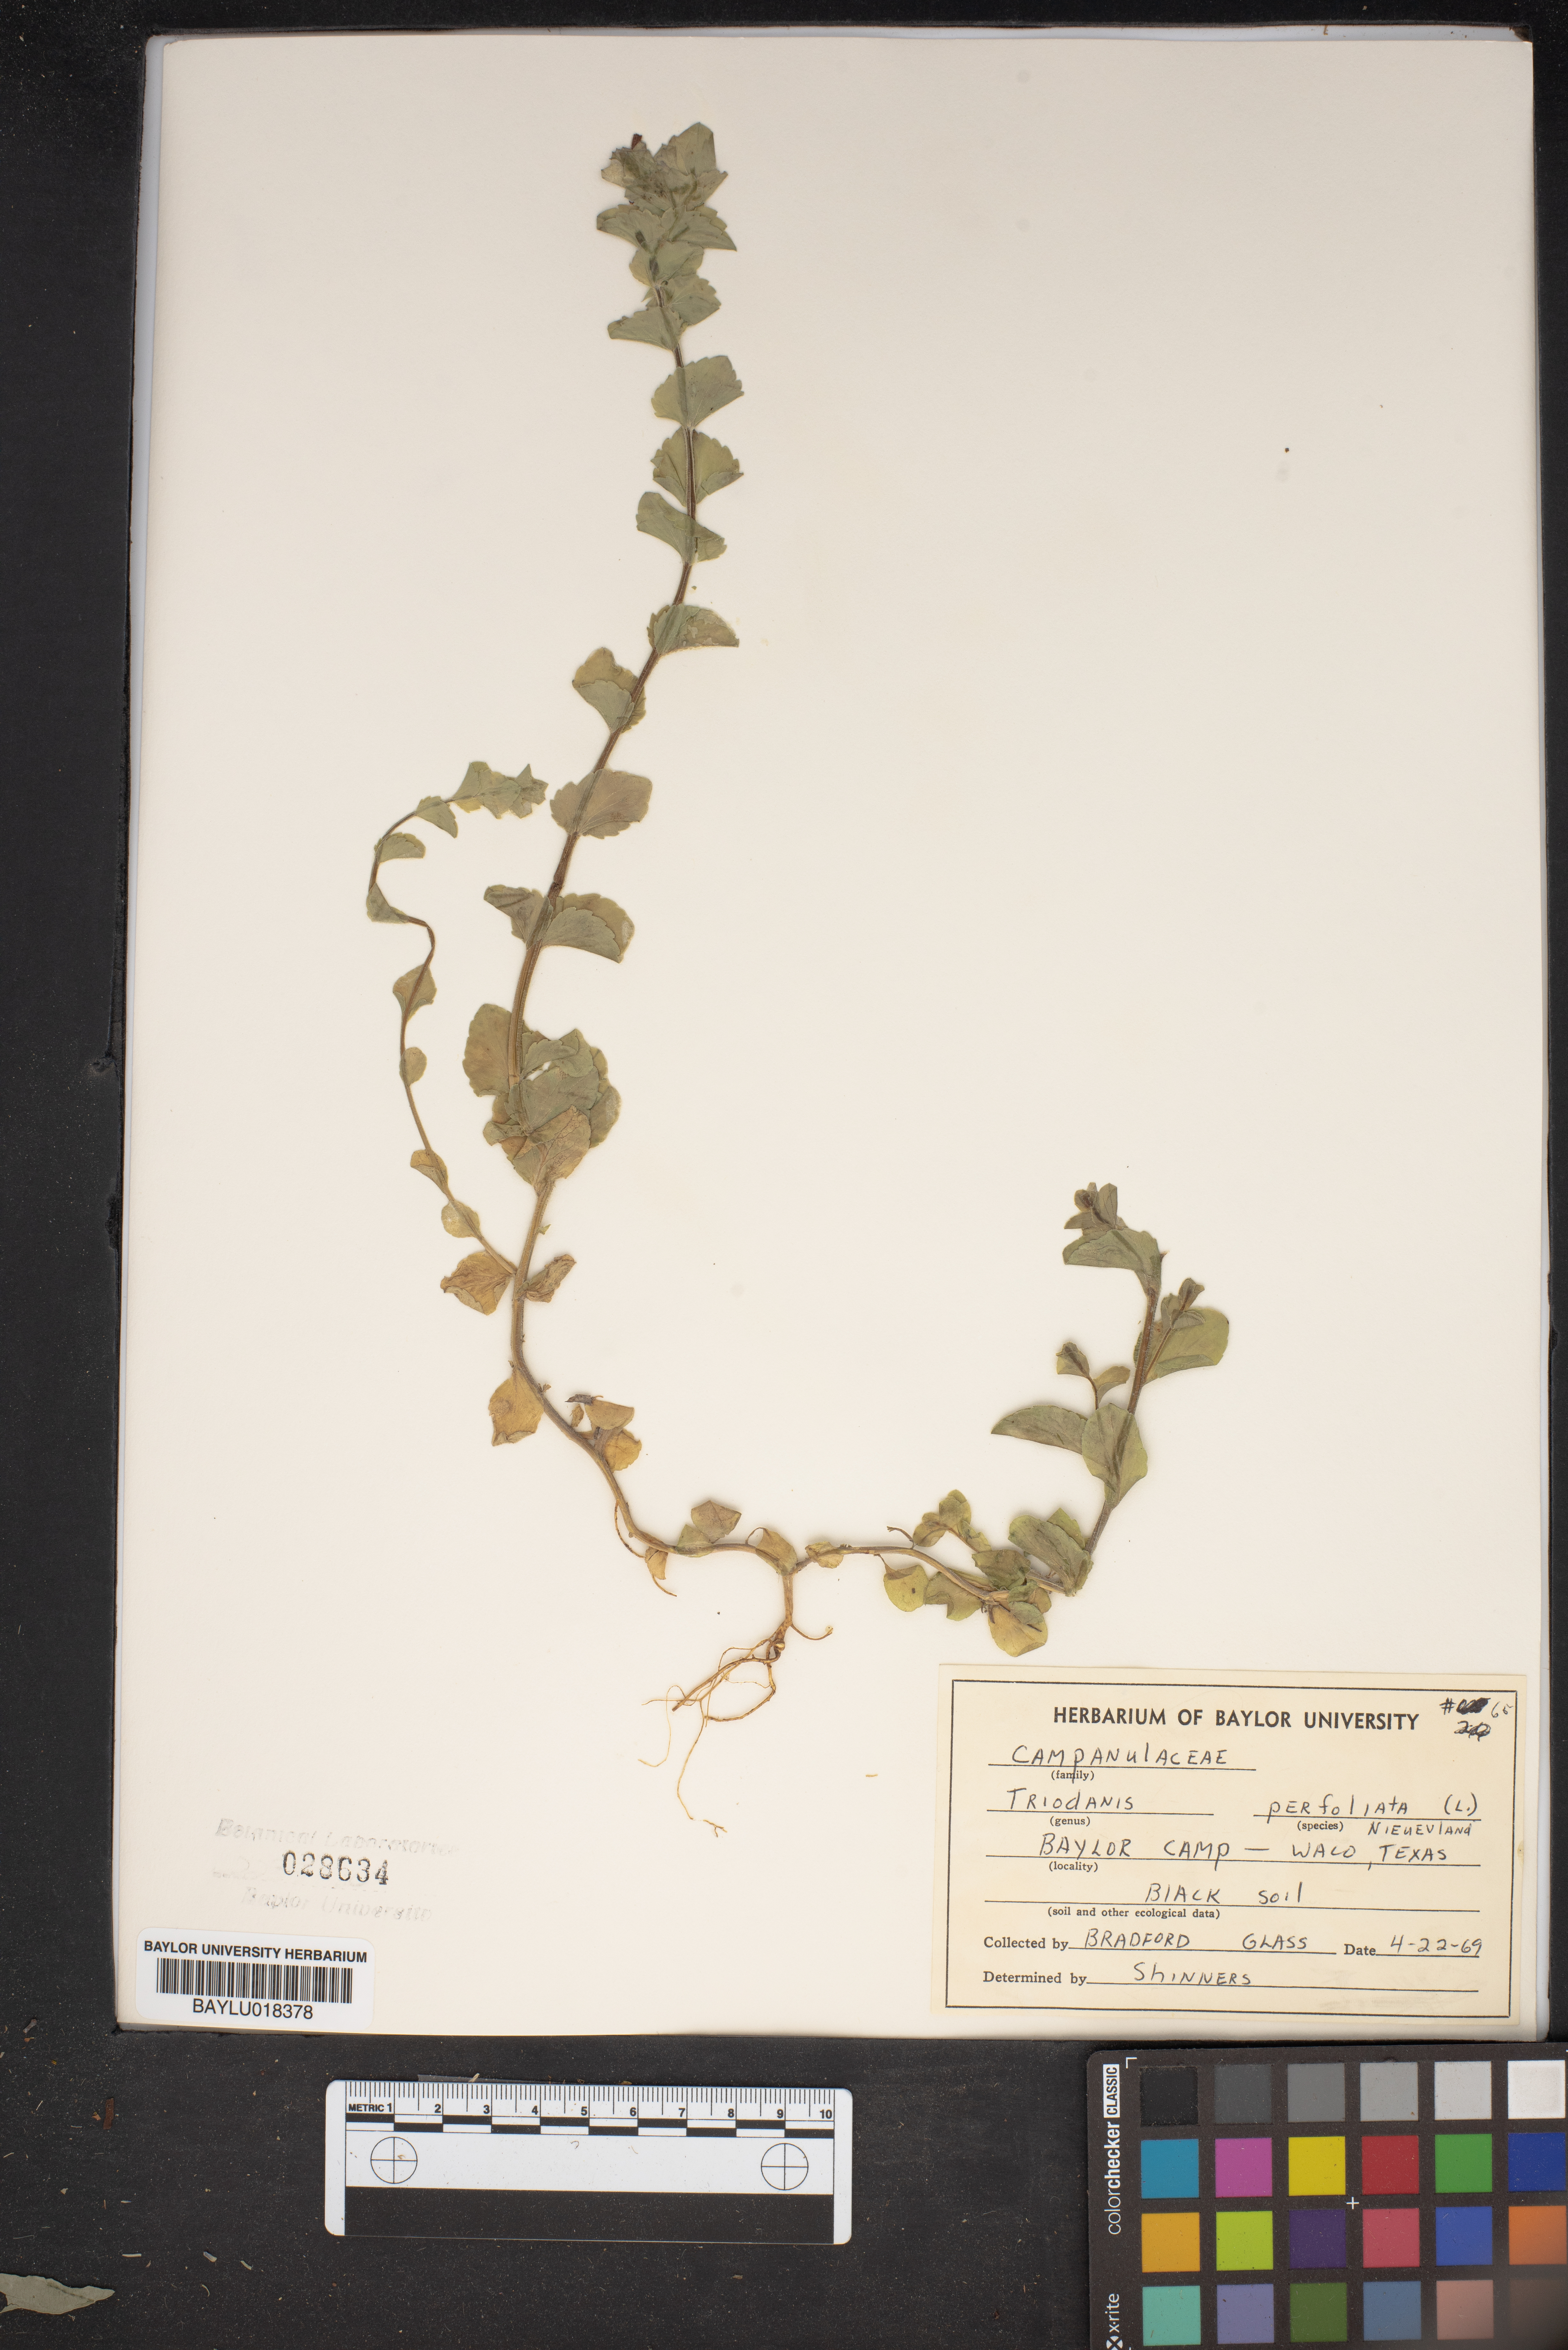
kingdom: Plantae
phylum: Tracheophyta
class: Magnoliopsida
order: Asterales
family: Campanulaceae
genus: Triodanis
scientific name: Triodanis perfoliata
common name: Clasping venus' looking-glass
